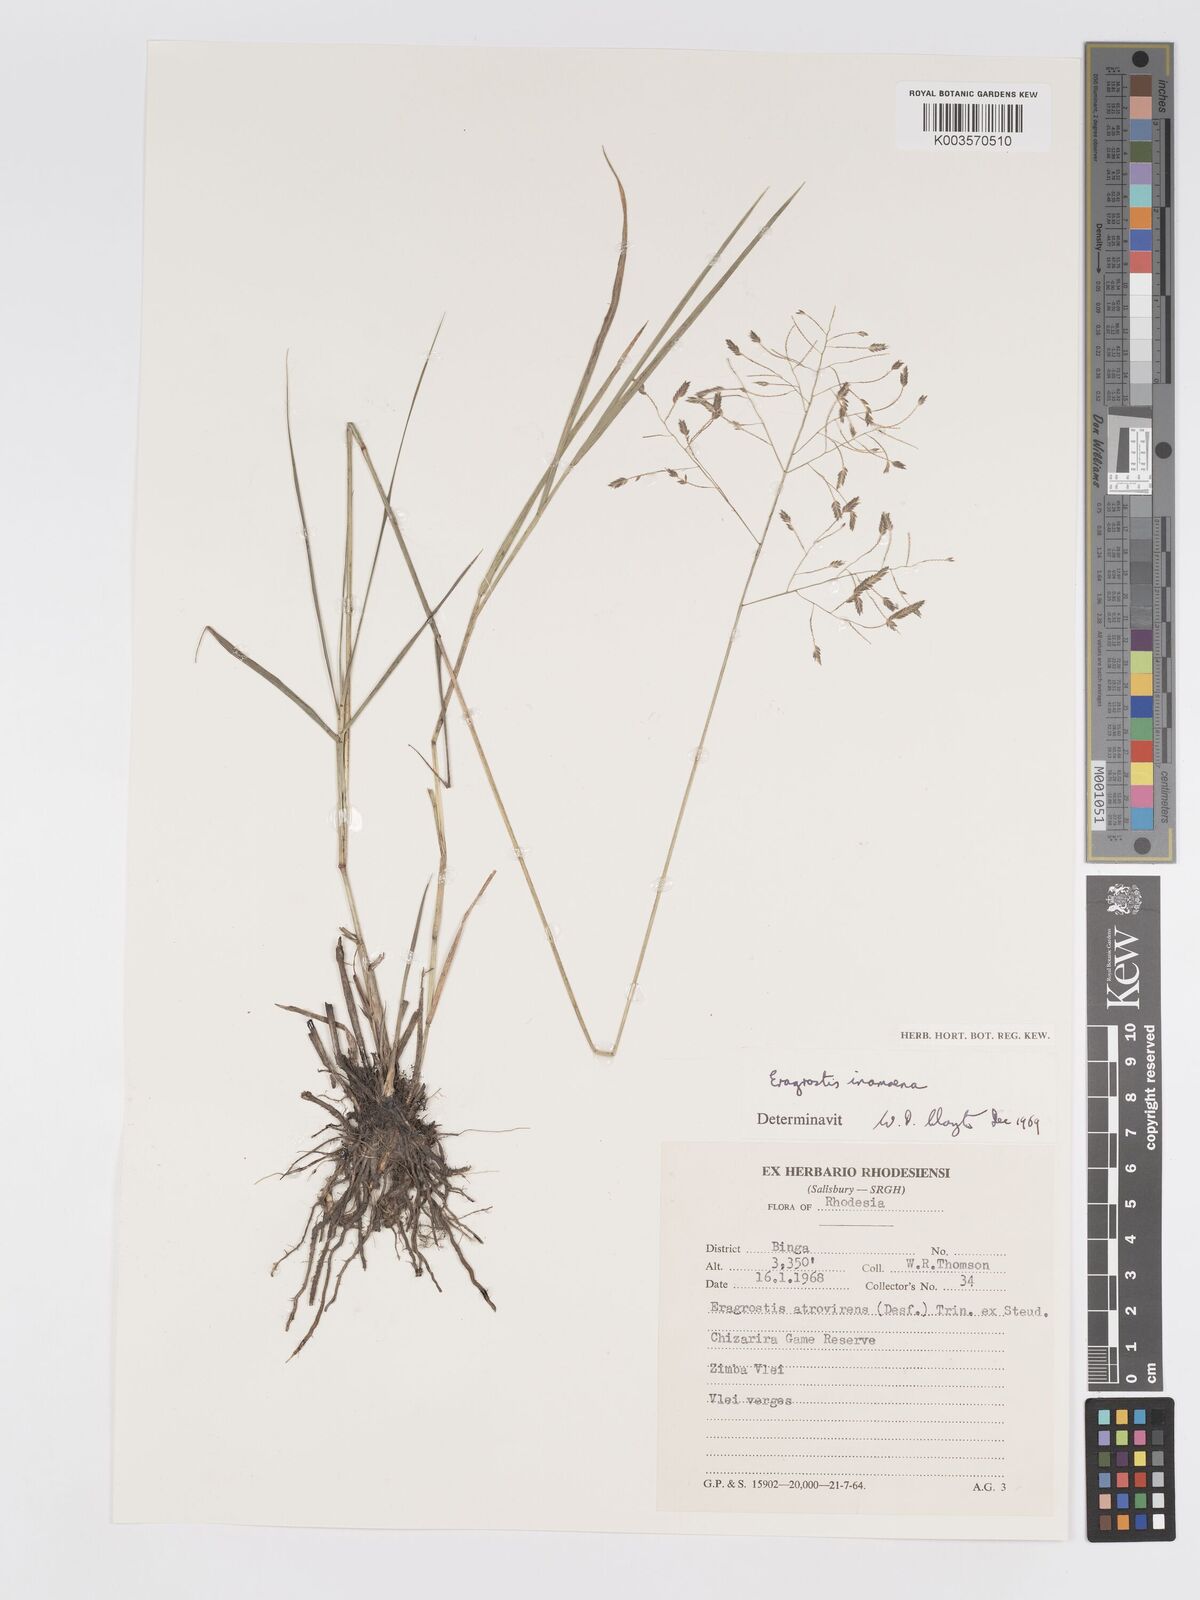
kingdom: Plantae
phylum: Tracheophyta
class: Liliopsida
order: Poales
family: Poaceae
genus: Eragrostis
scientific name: Eragrostis inamoena
